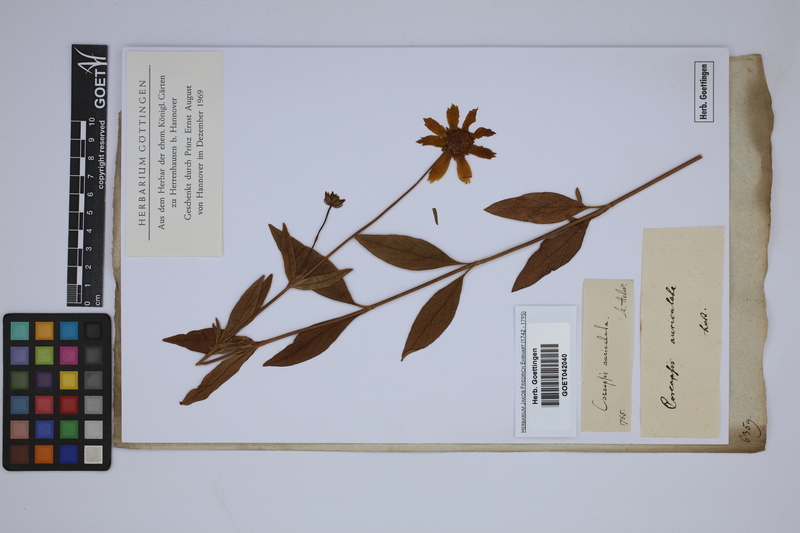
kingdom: Plantae
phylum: Tracheophyta
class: Magnoliopsida
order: Asterales
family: Asteraceae
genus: Coreopsis
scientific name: Coreopsis auriculata
